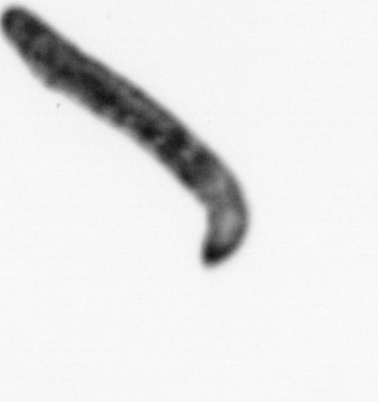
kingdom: Animalia
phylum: Annelida
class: Polychaeta
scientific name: Polychaeta
